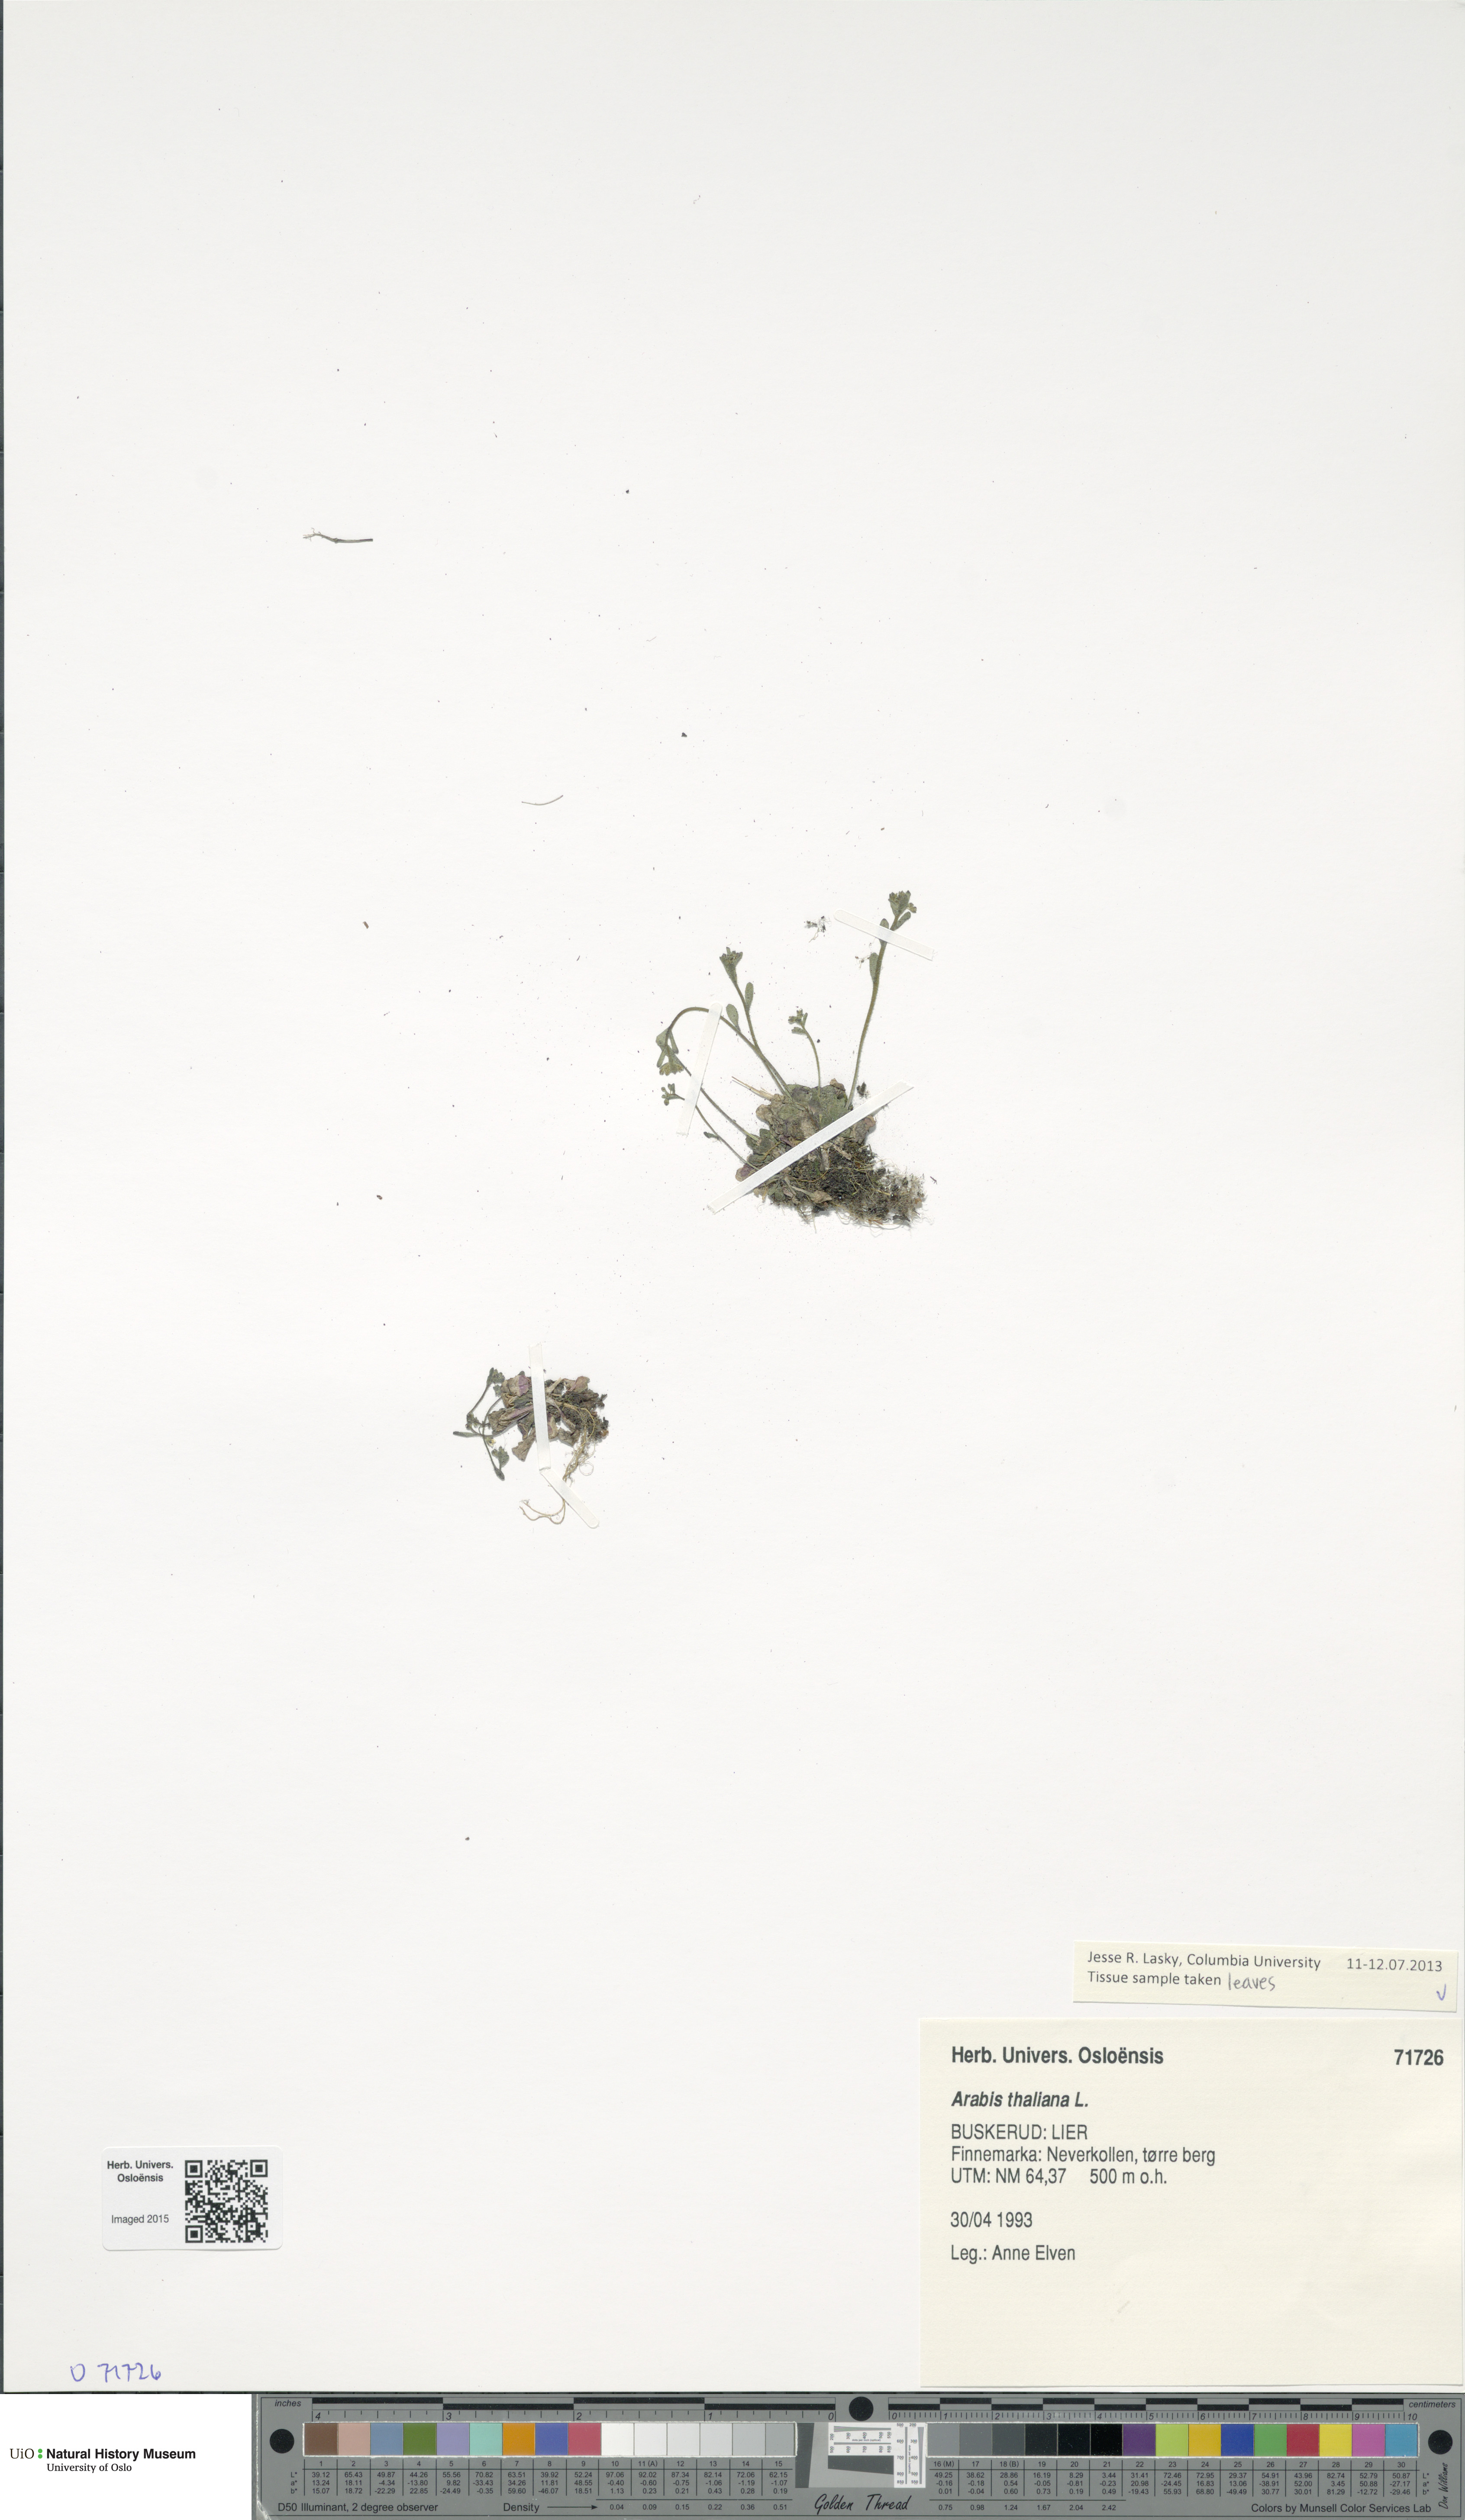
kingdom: Plantae
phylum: Tracheophyta
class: Magnoliopsida
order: Brassicales
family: Brassicaceae
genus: Arabidopsis
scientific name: Arabidopsis thaliana
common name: Thale cress
